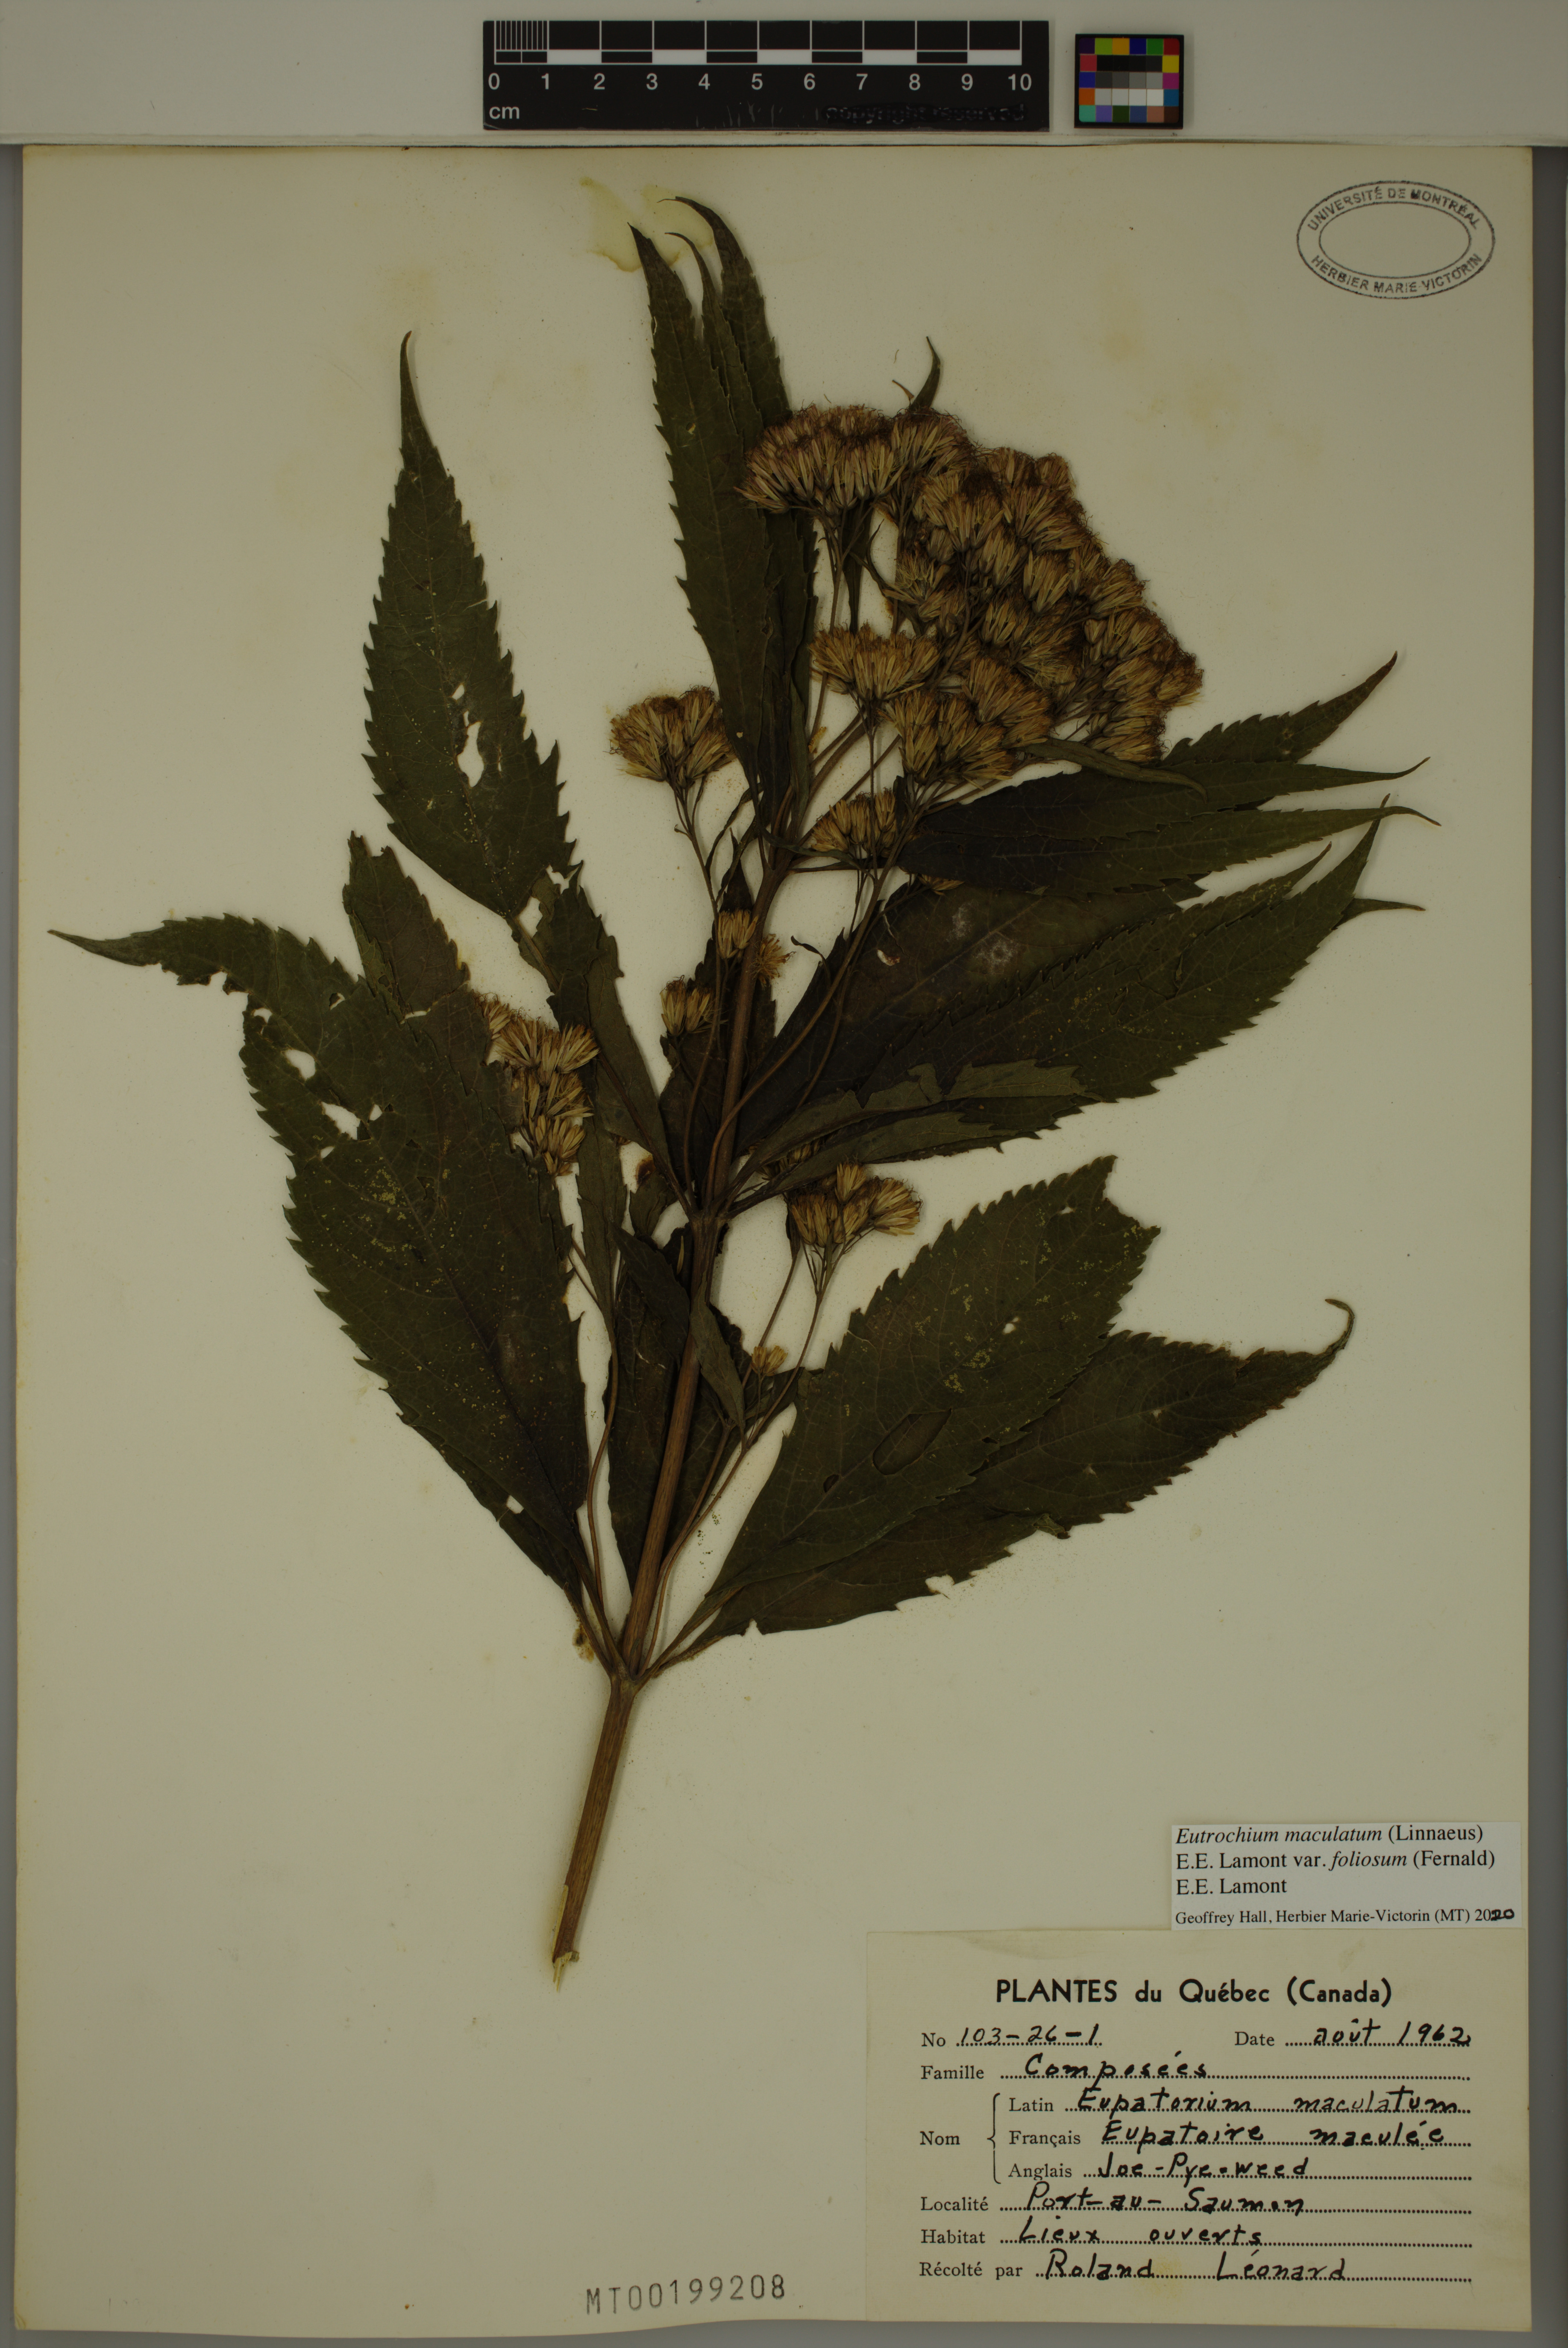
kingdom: Plantae
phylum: Tracheophyta
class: Magnoliopsida
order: Asterales
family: Asteraceae
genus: Eutrochium
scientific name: Eutrochium maculatum
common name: Spotted joe pye weed
